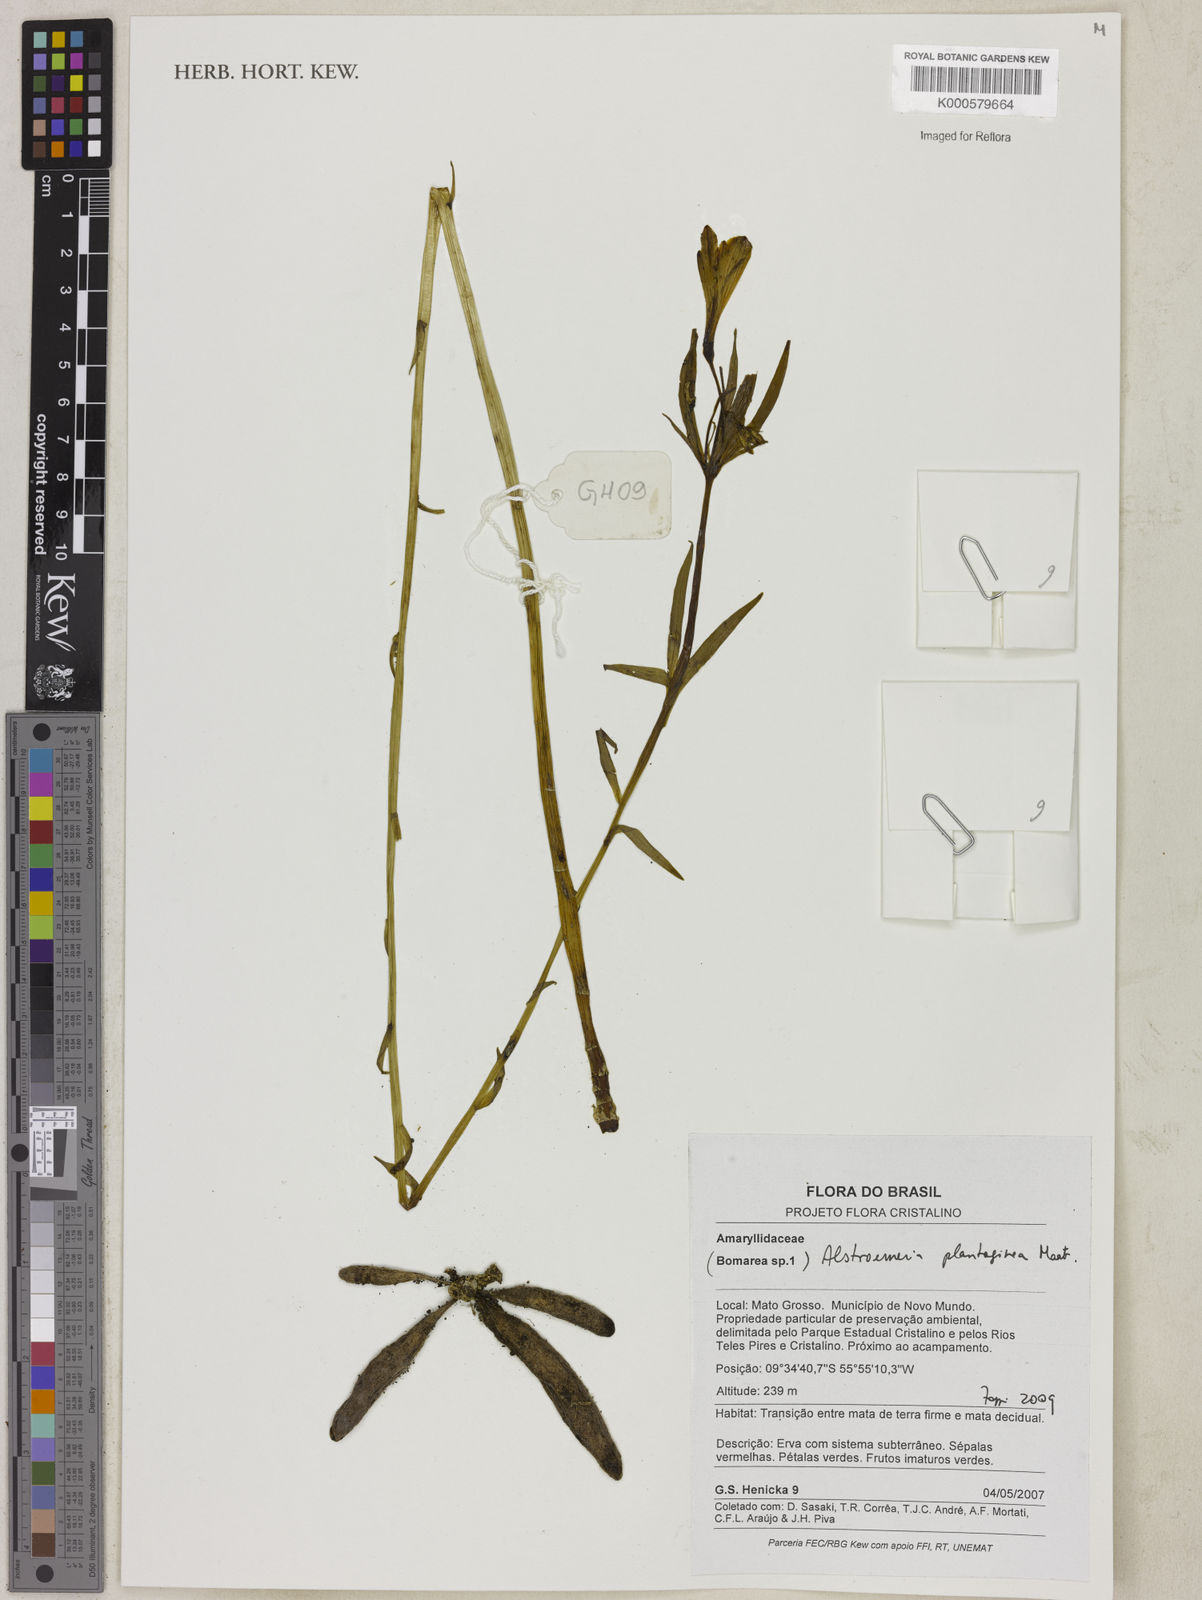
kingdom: Plantae
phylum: Tracheophyta
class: Liliopsida
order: Liliales
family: Alstroemeriaceae
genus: Alstroemeria
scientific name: Alstroemeria plantaginea
